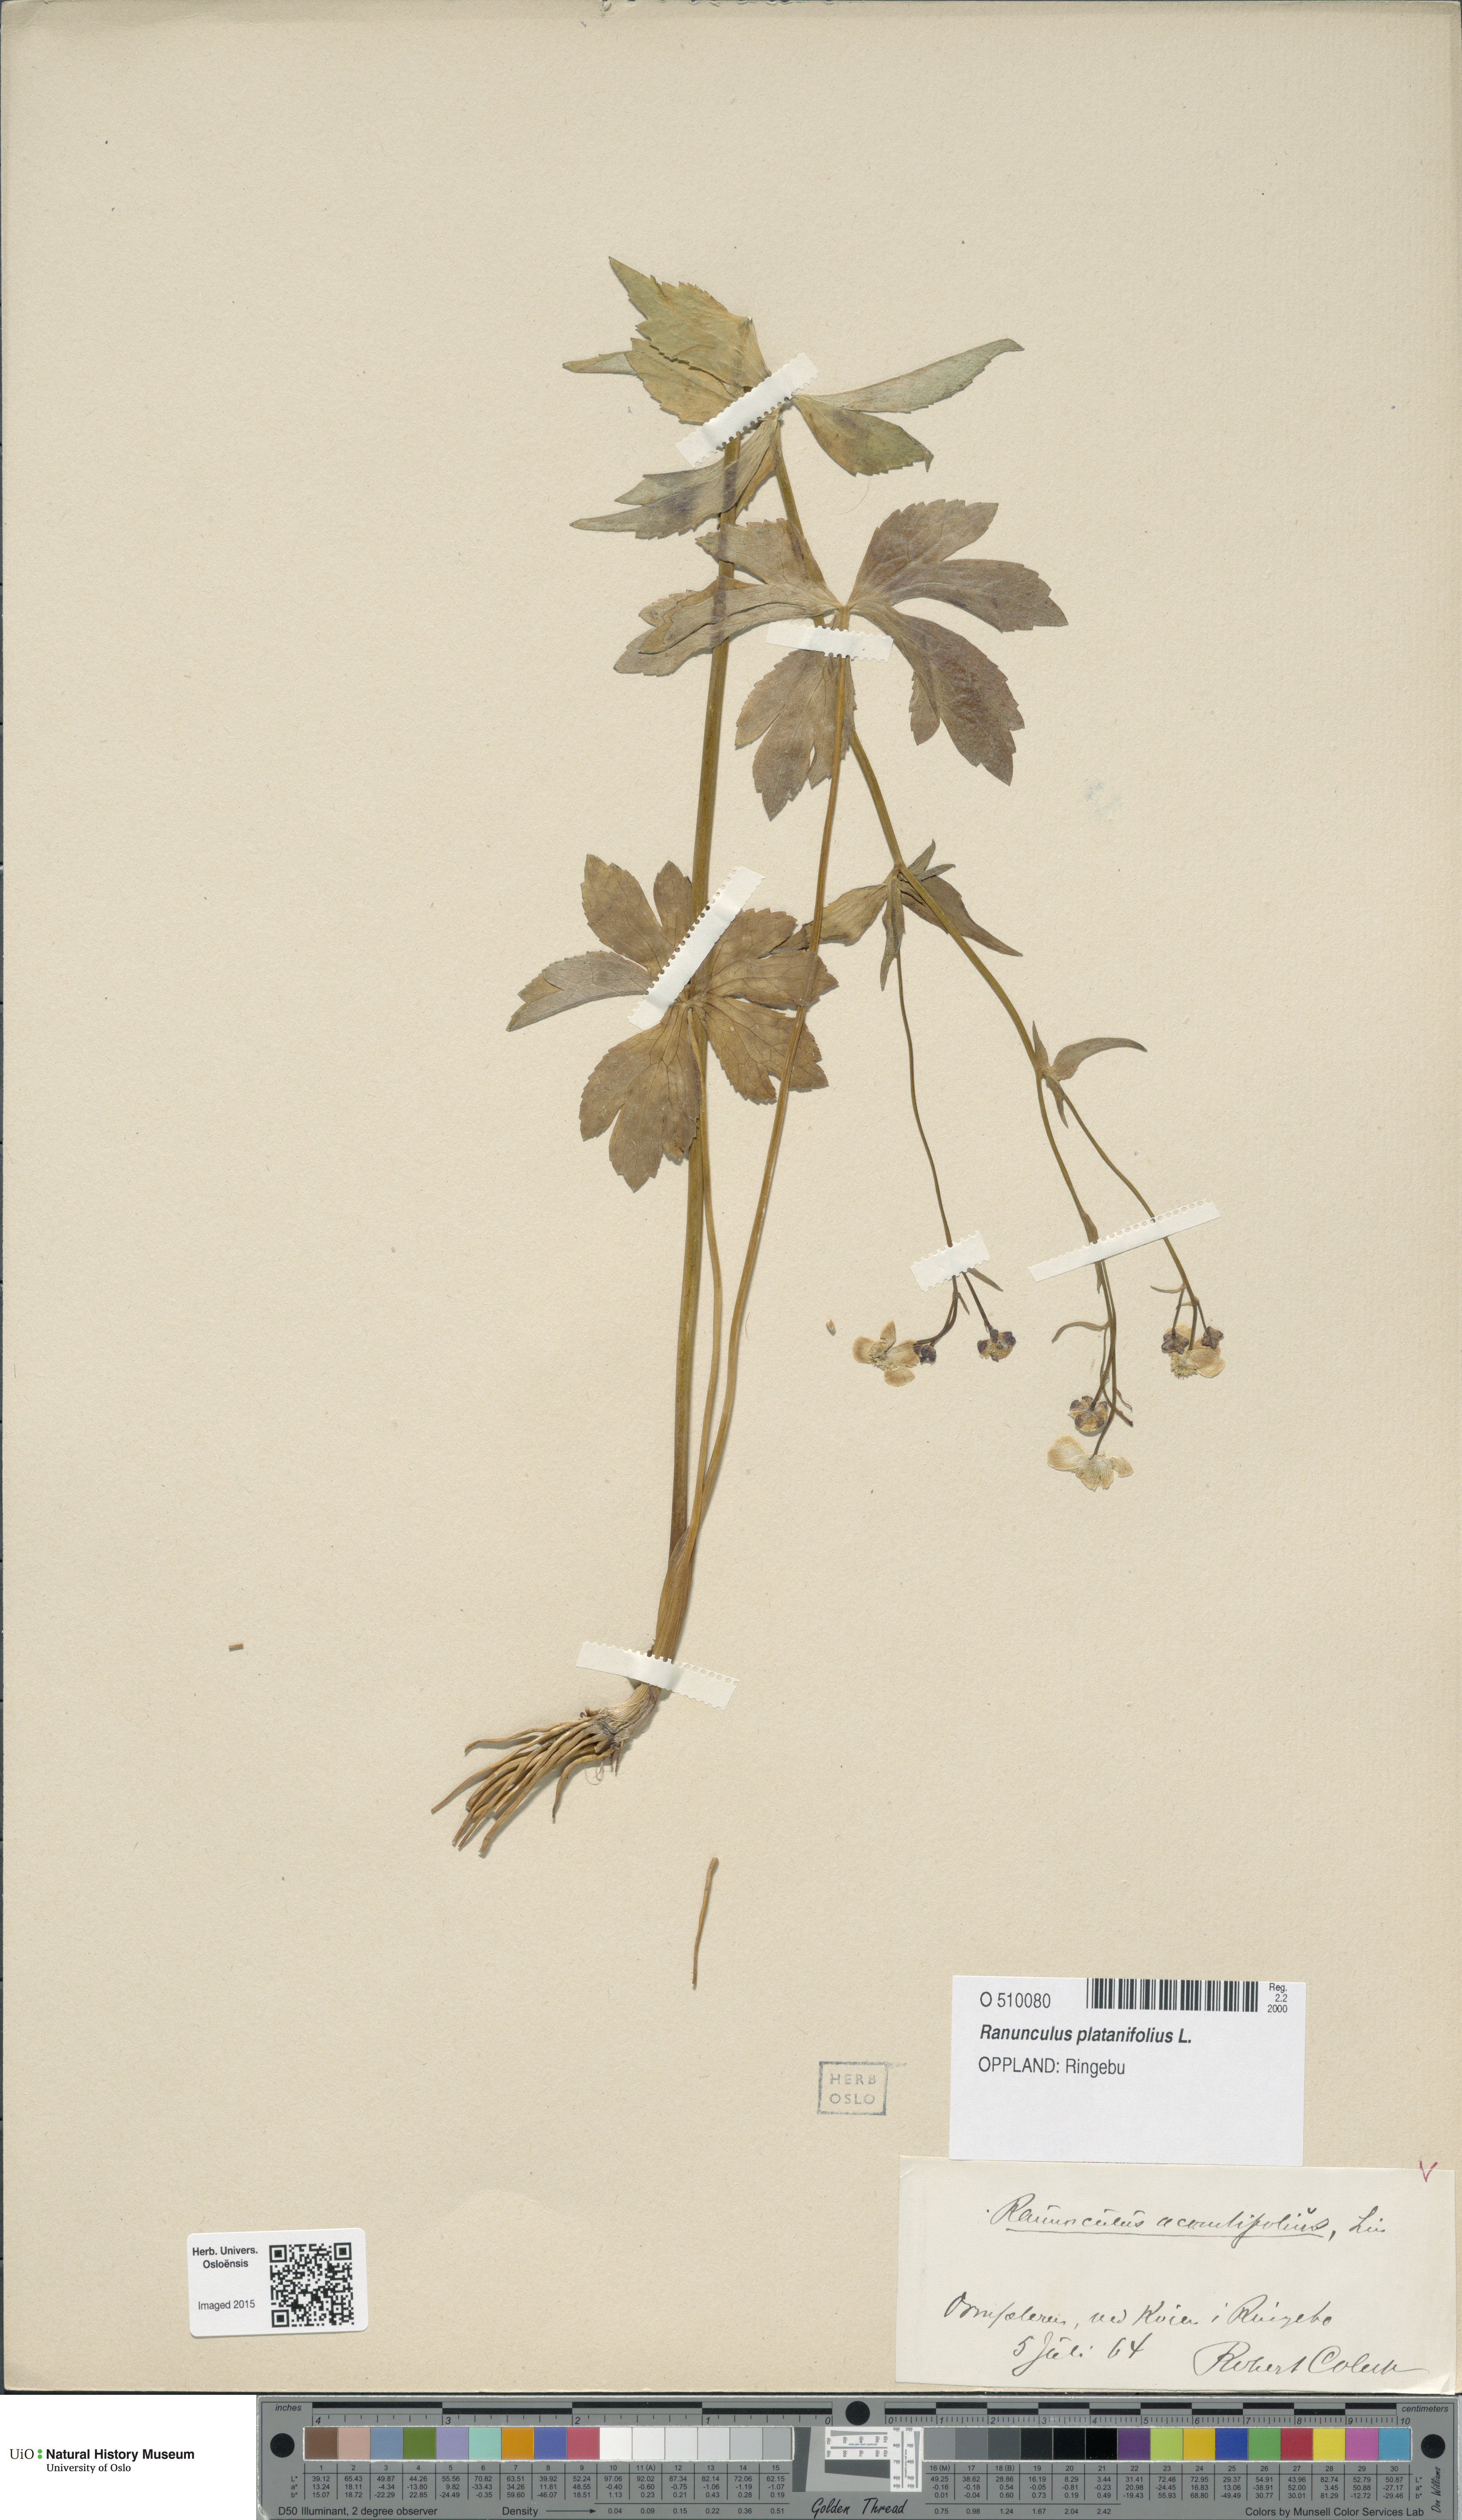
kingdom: Plantae
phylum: Tracheophyta
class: Magnoliopsida
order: Ranunculales
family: Ranunculaceae
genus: Ranunculus
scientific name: Ranunculus platanifolius
